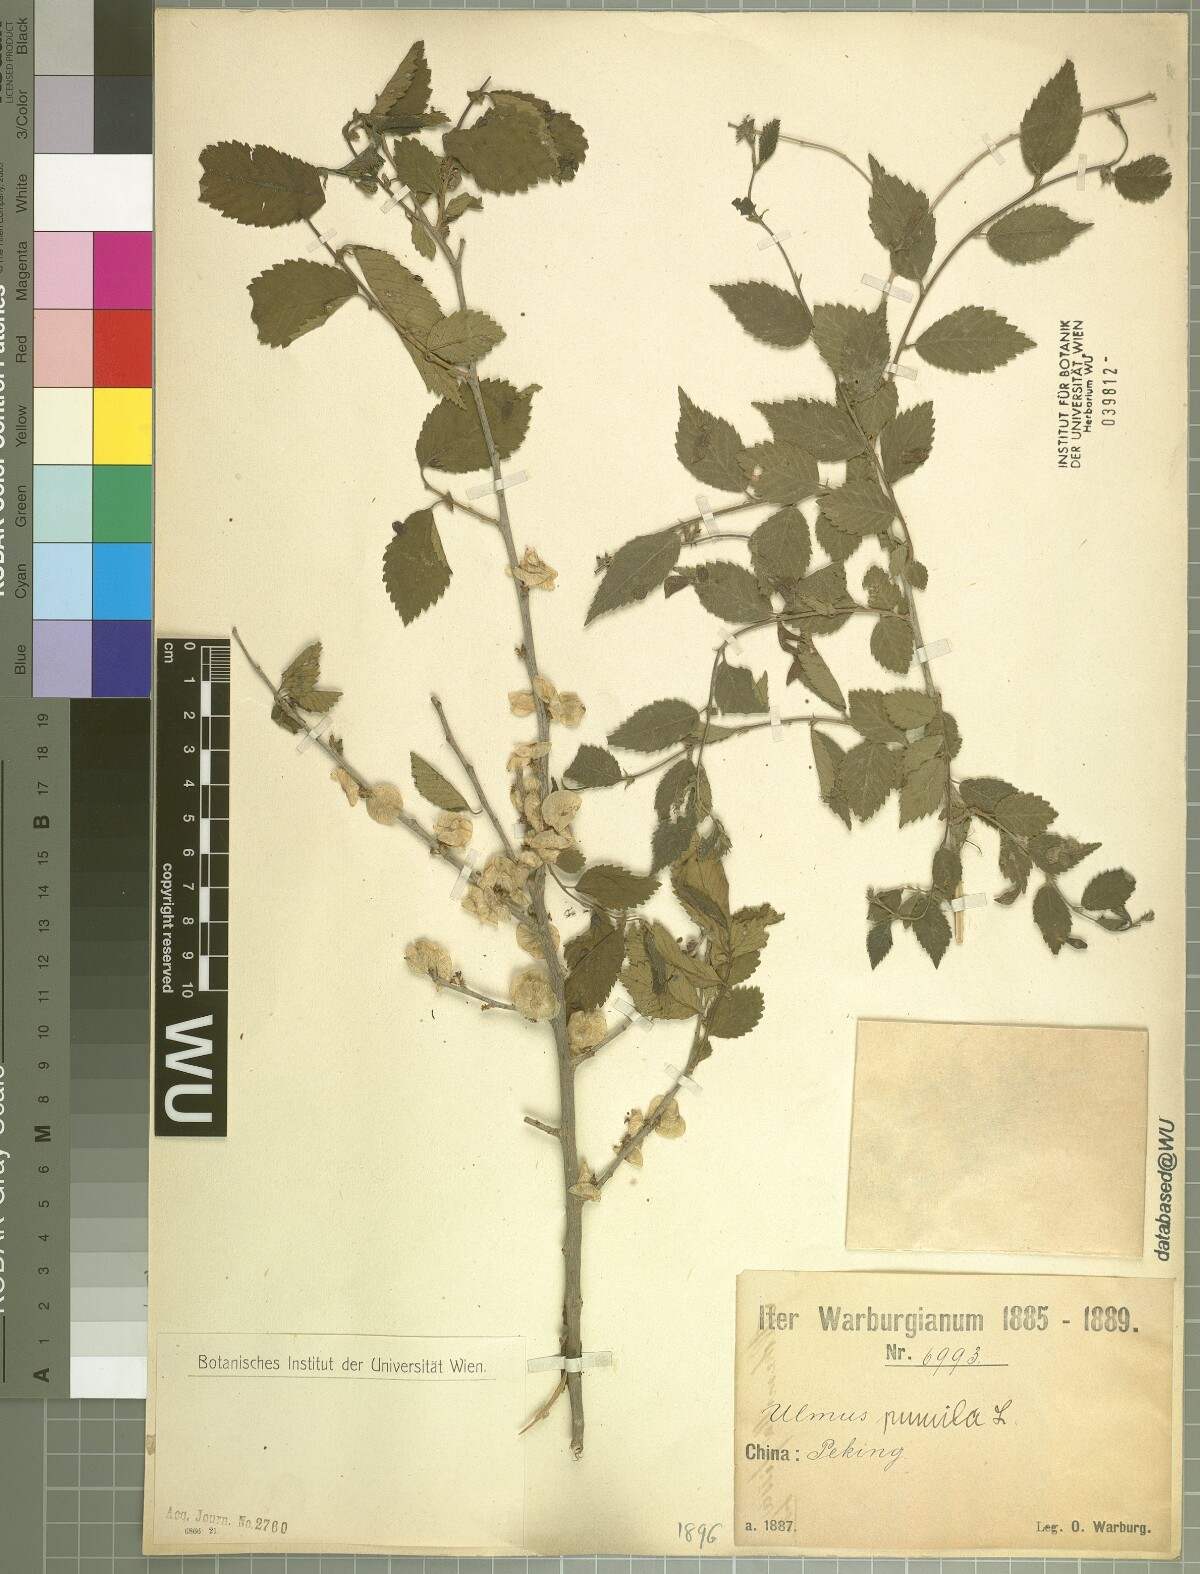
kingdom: Plantae
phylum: Tracheophyta
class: Magnoliopsida
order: Rosales
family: Ulmaceae
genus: Ulmus
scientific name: Ulmus pumila
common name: Siberian elm
